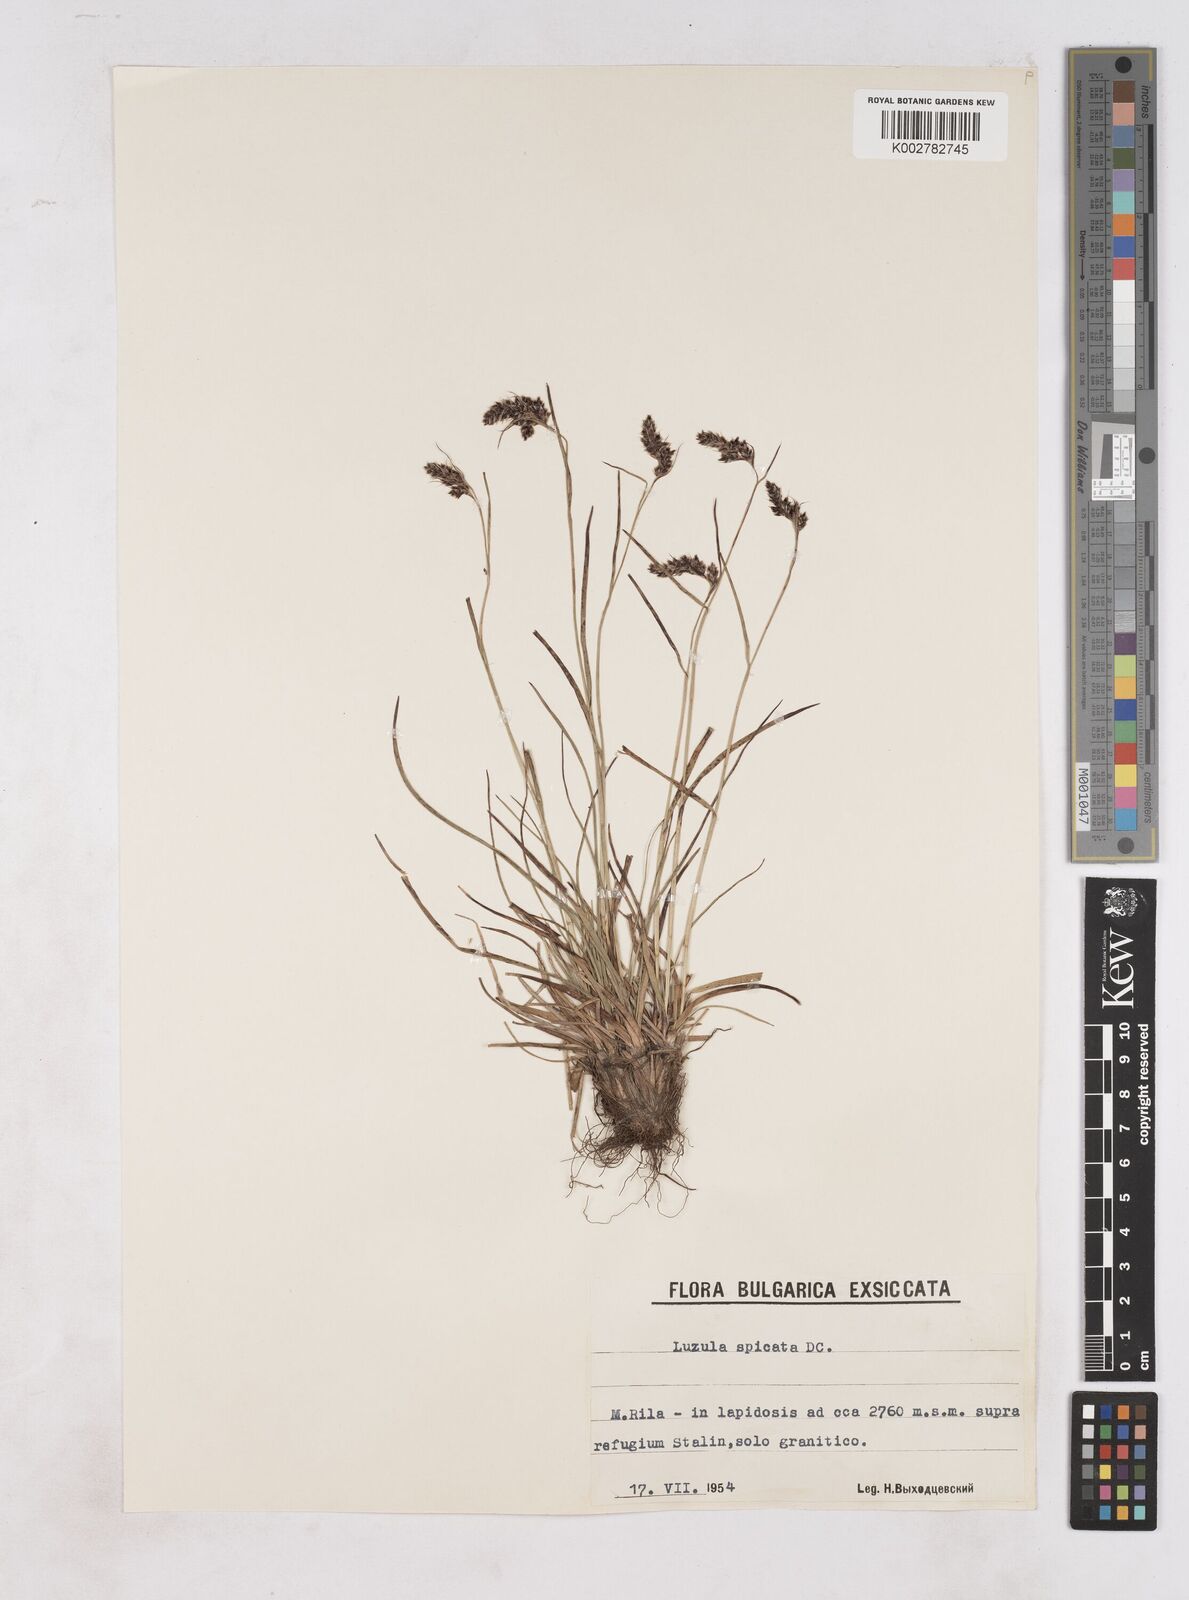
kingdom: Plantae
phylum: Tracheophyta
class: Liliopsida
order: Poales
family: Juncaceae
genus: Luzula
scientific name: Luzula spicata
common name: Spiked wood-rush
